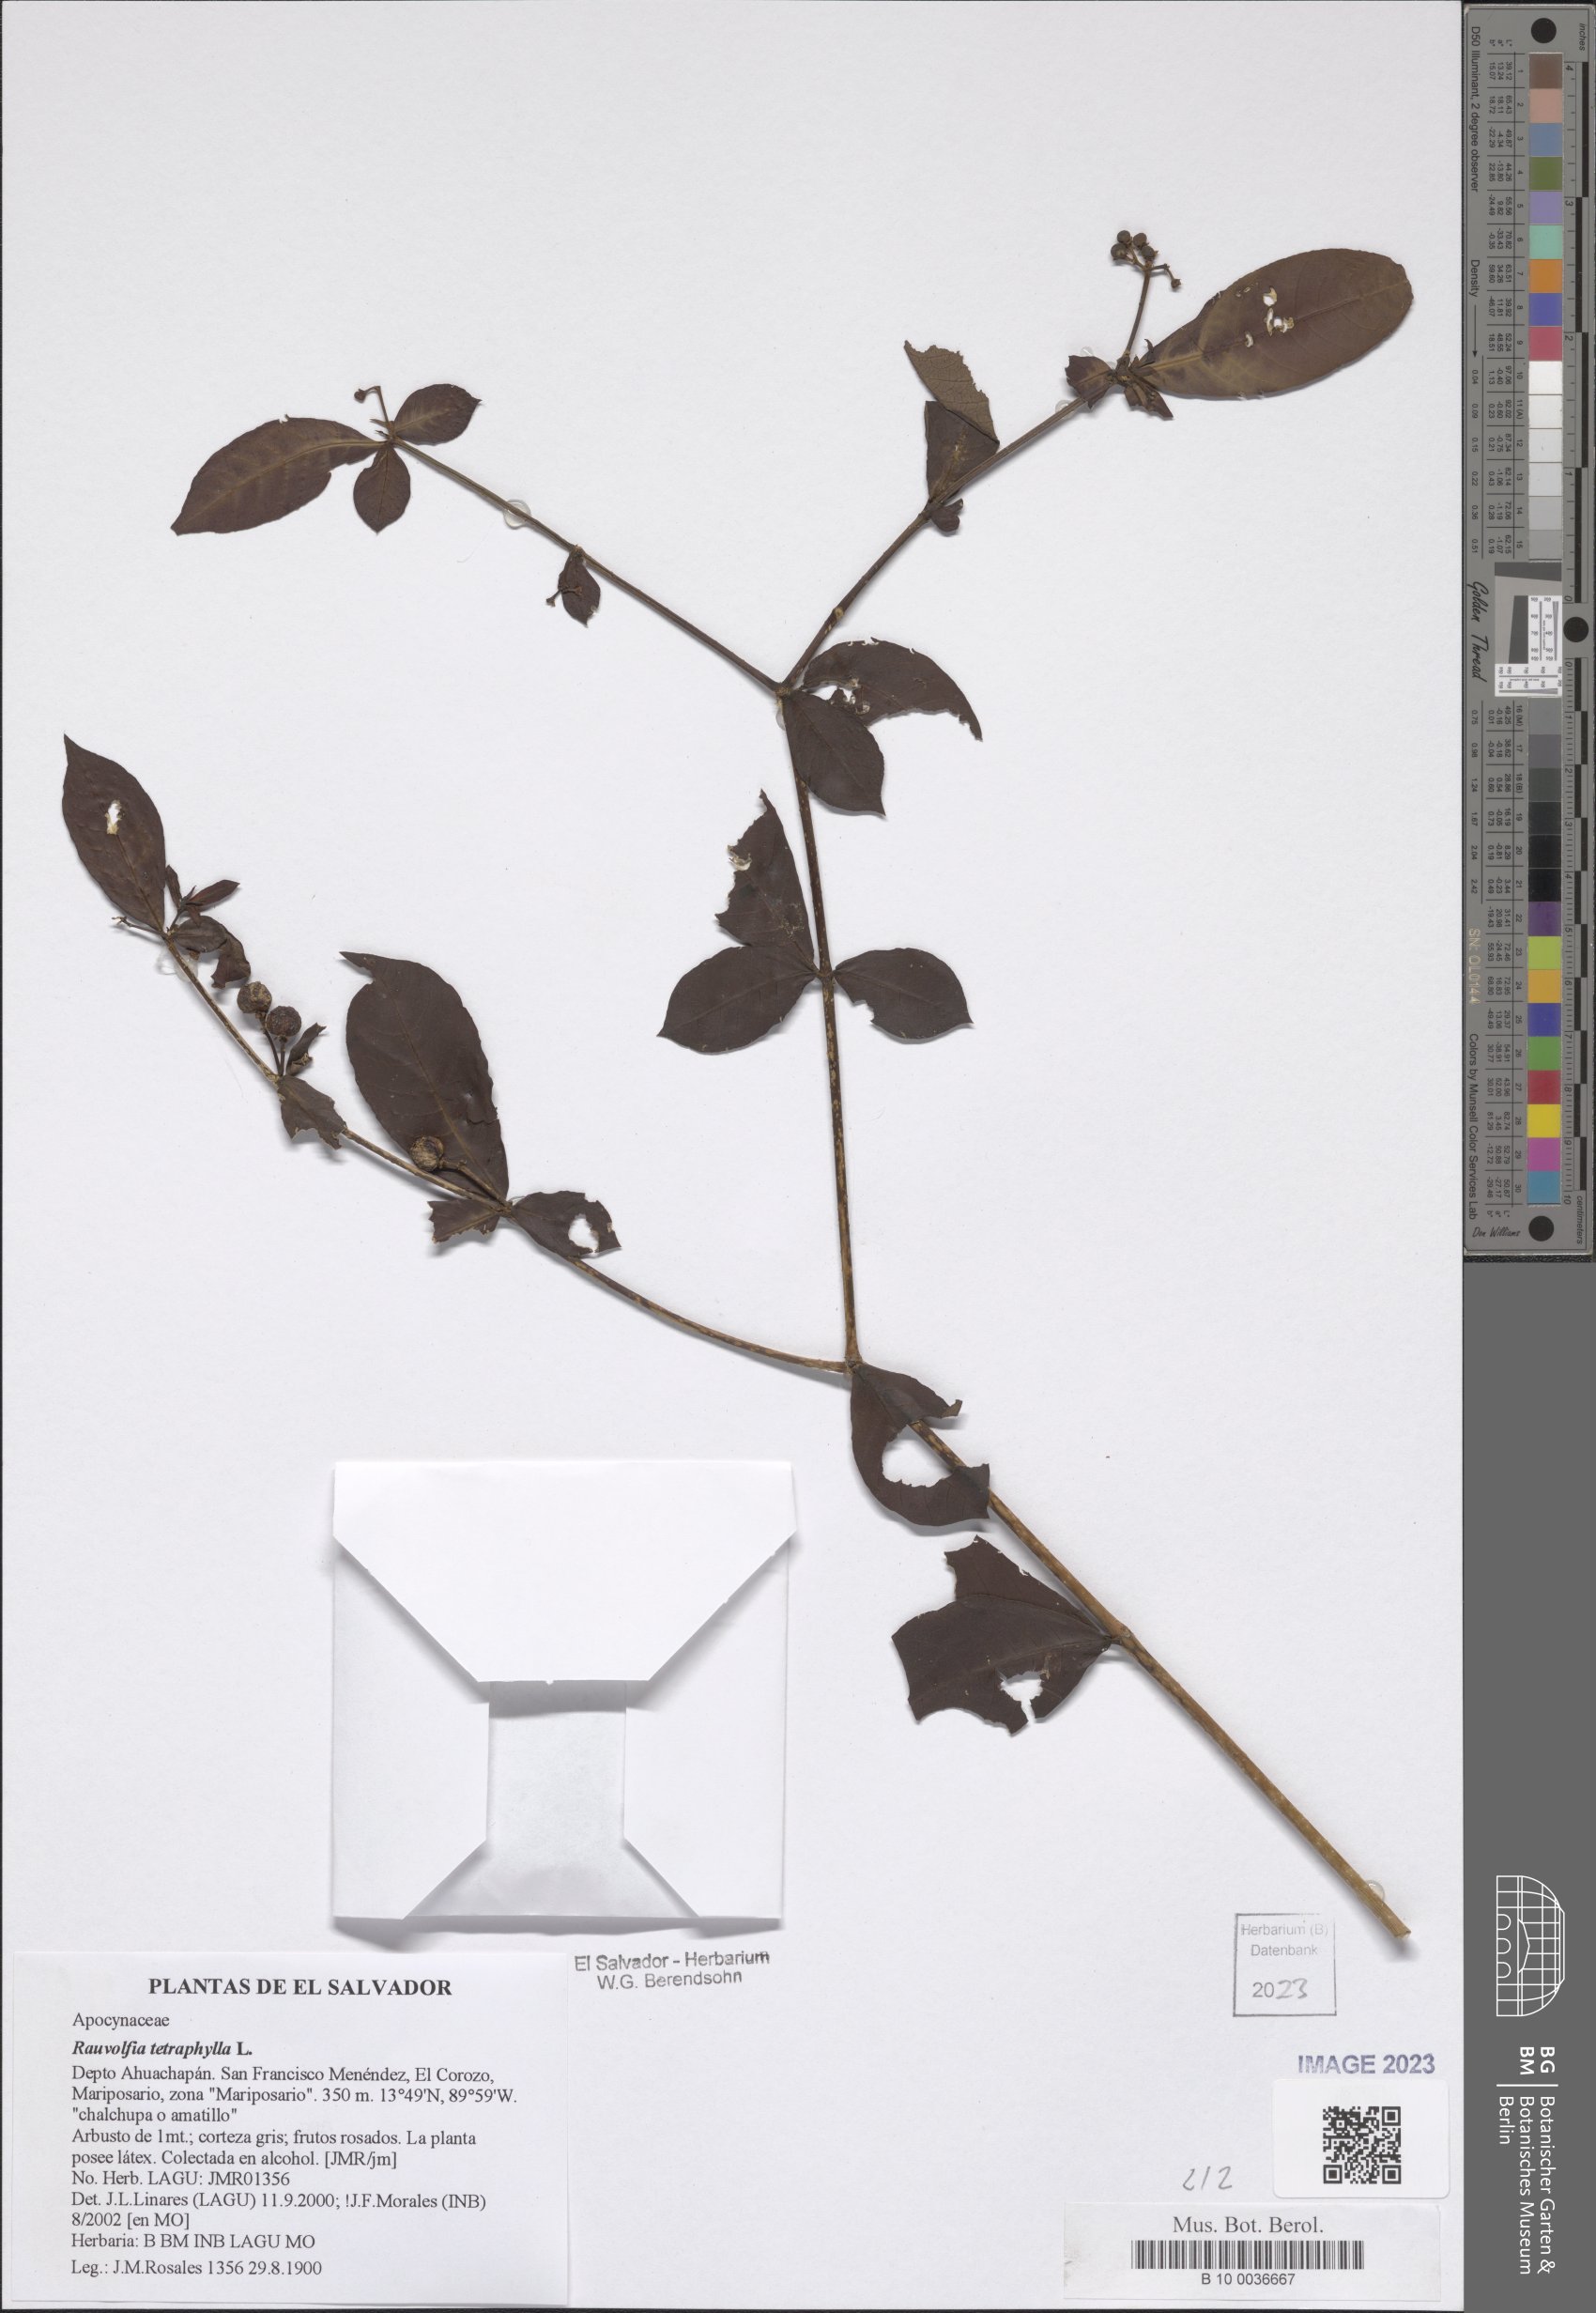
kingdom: Plantae
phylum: Tracheophyta
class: Magnoliopsida
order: Gentianales
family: Apocynaceae
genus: Rauvolfia
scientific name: Rauvolfia tetraphylla
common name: Four-leaf devil-pepper
